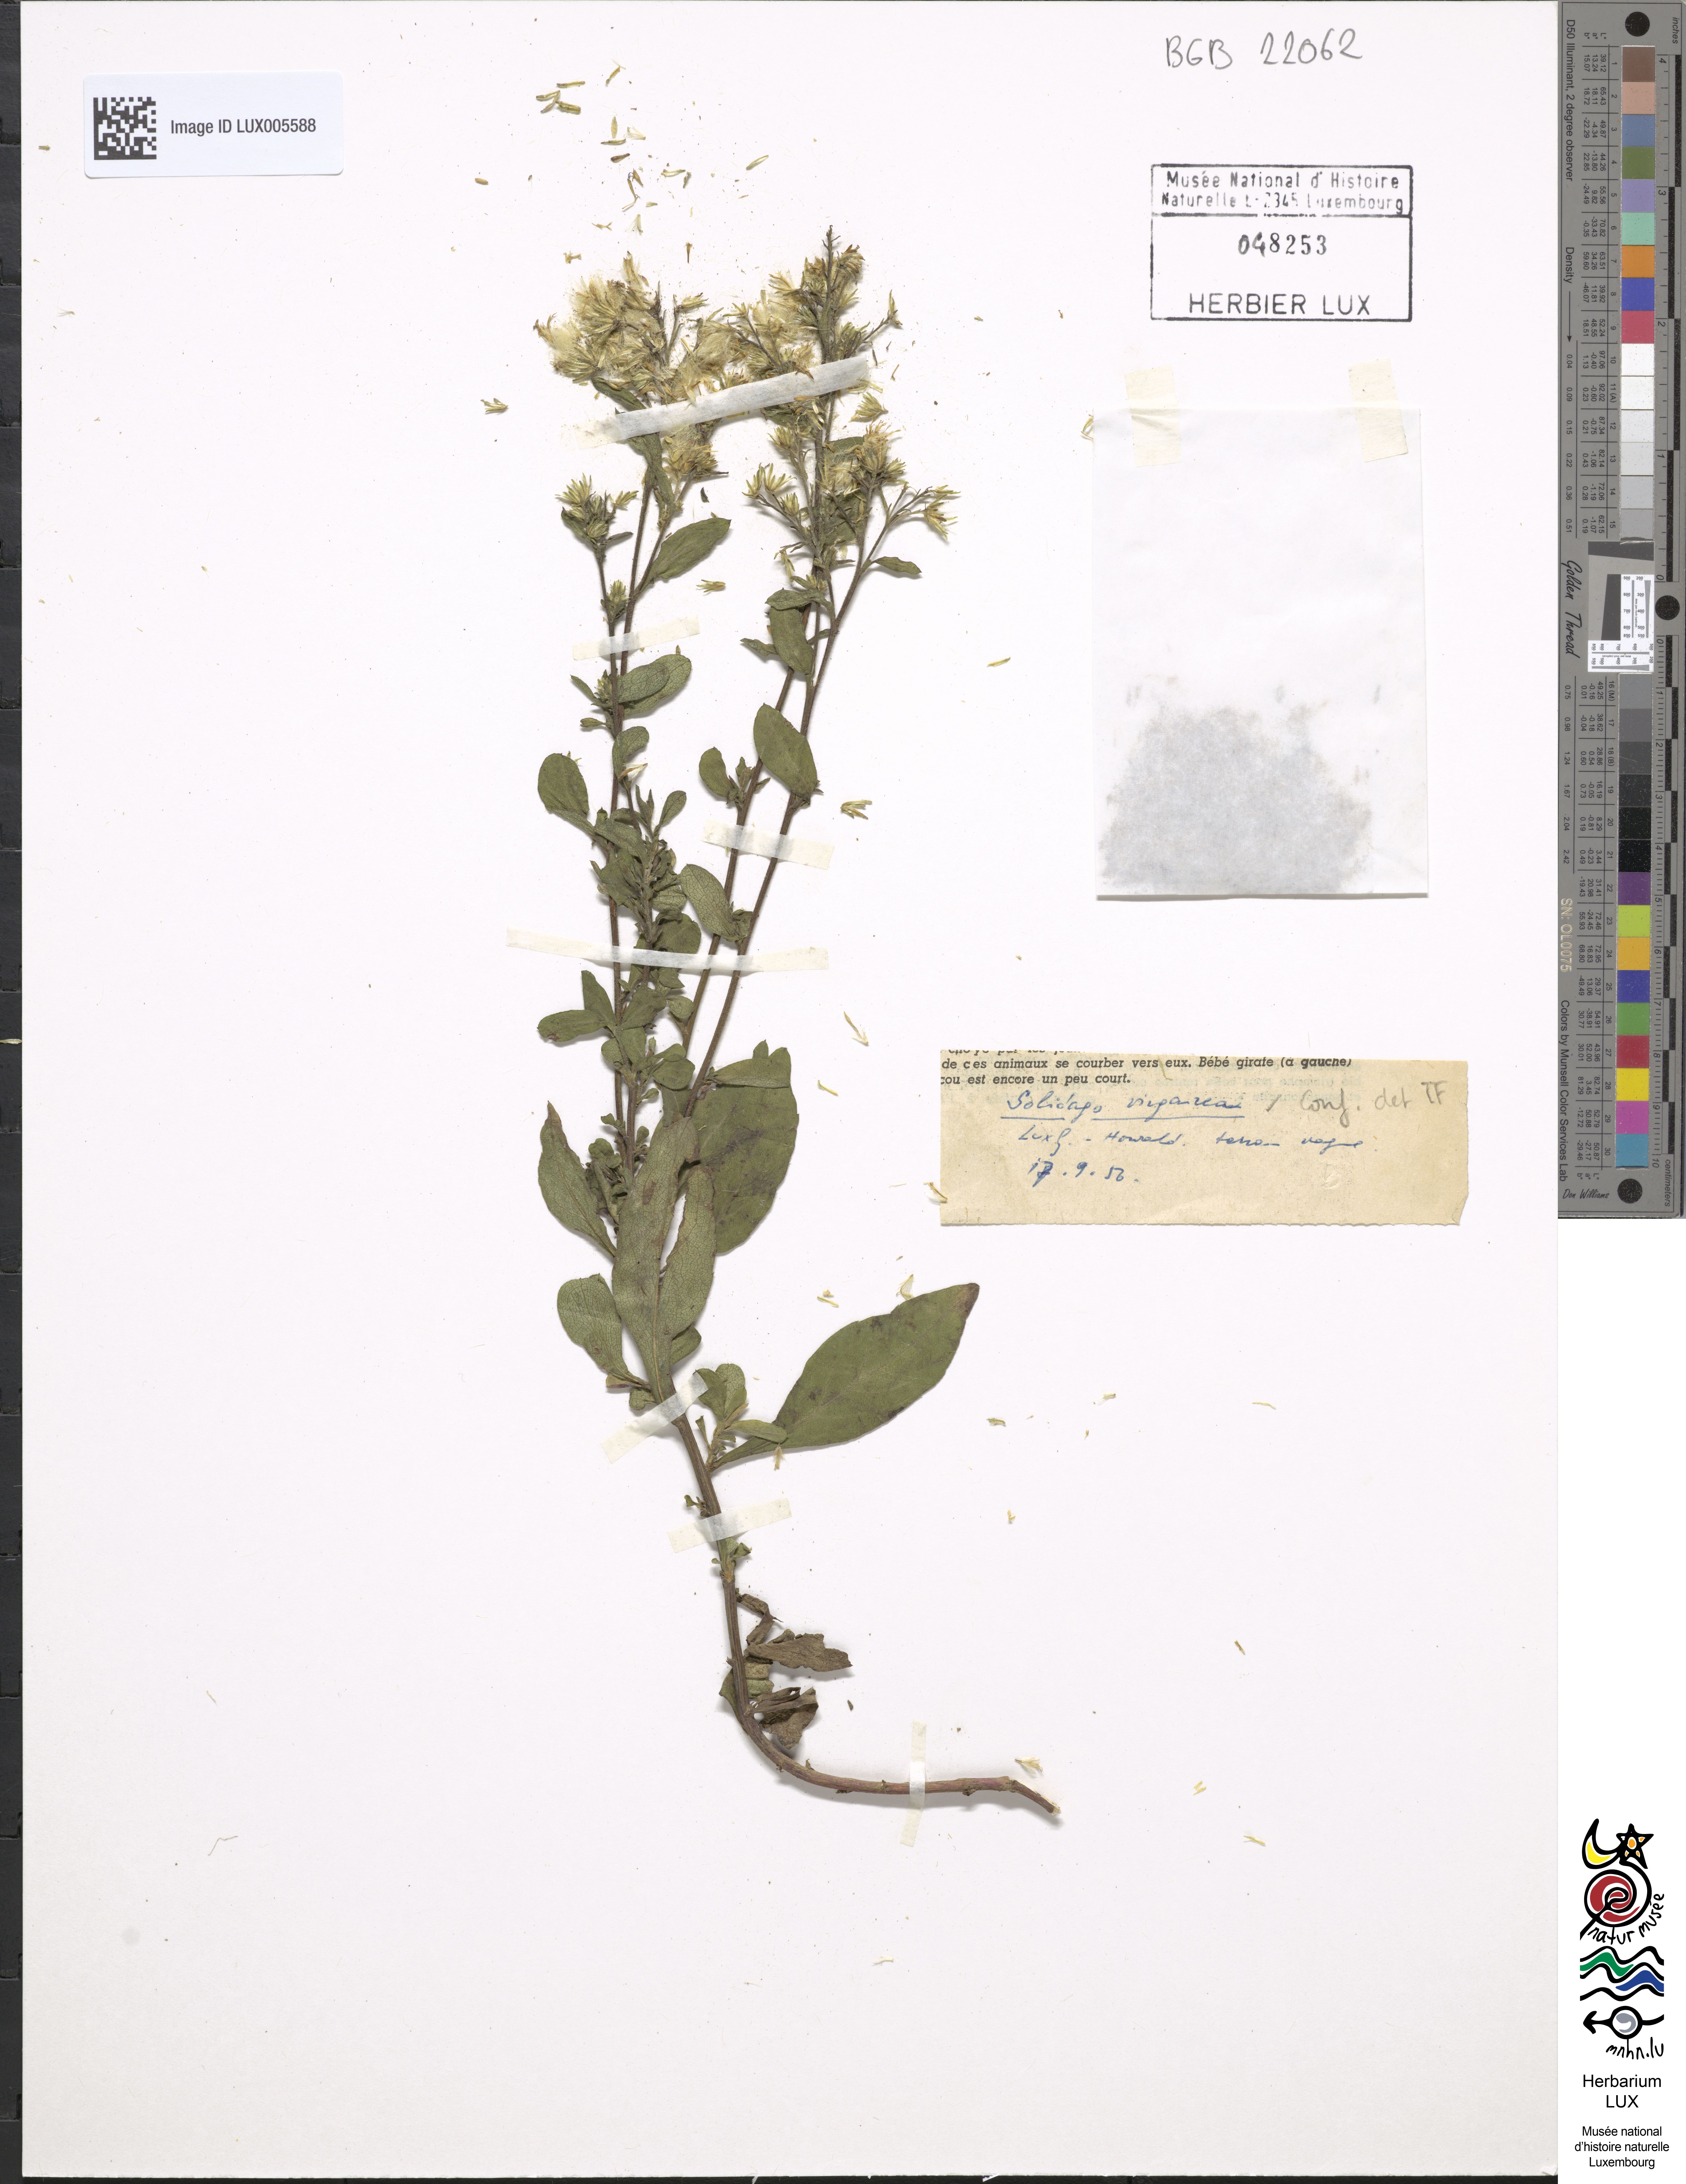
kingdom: Plantae
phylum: Tracheophyta
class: Magnoliopsida
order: Asterales
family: Asteraceae
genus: Solidago
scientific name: Solidago virgaurea
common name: Goldenrod
